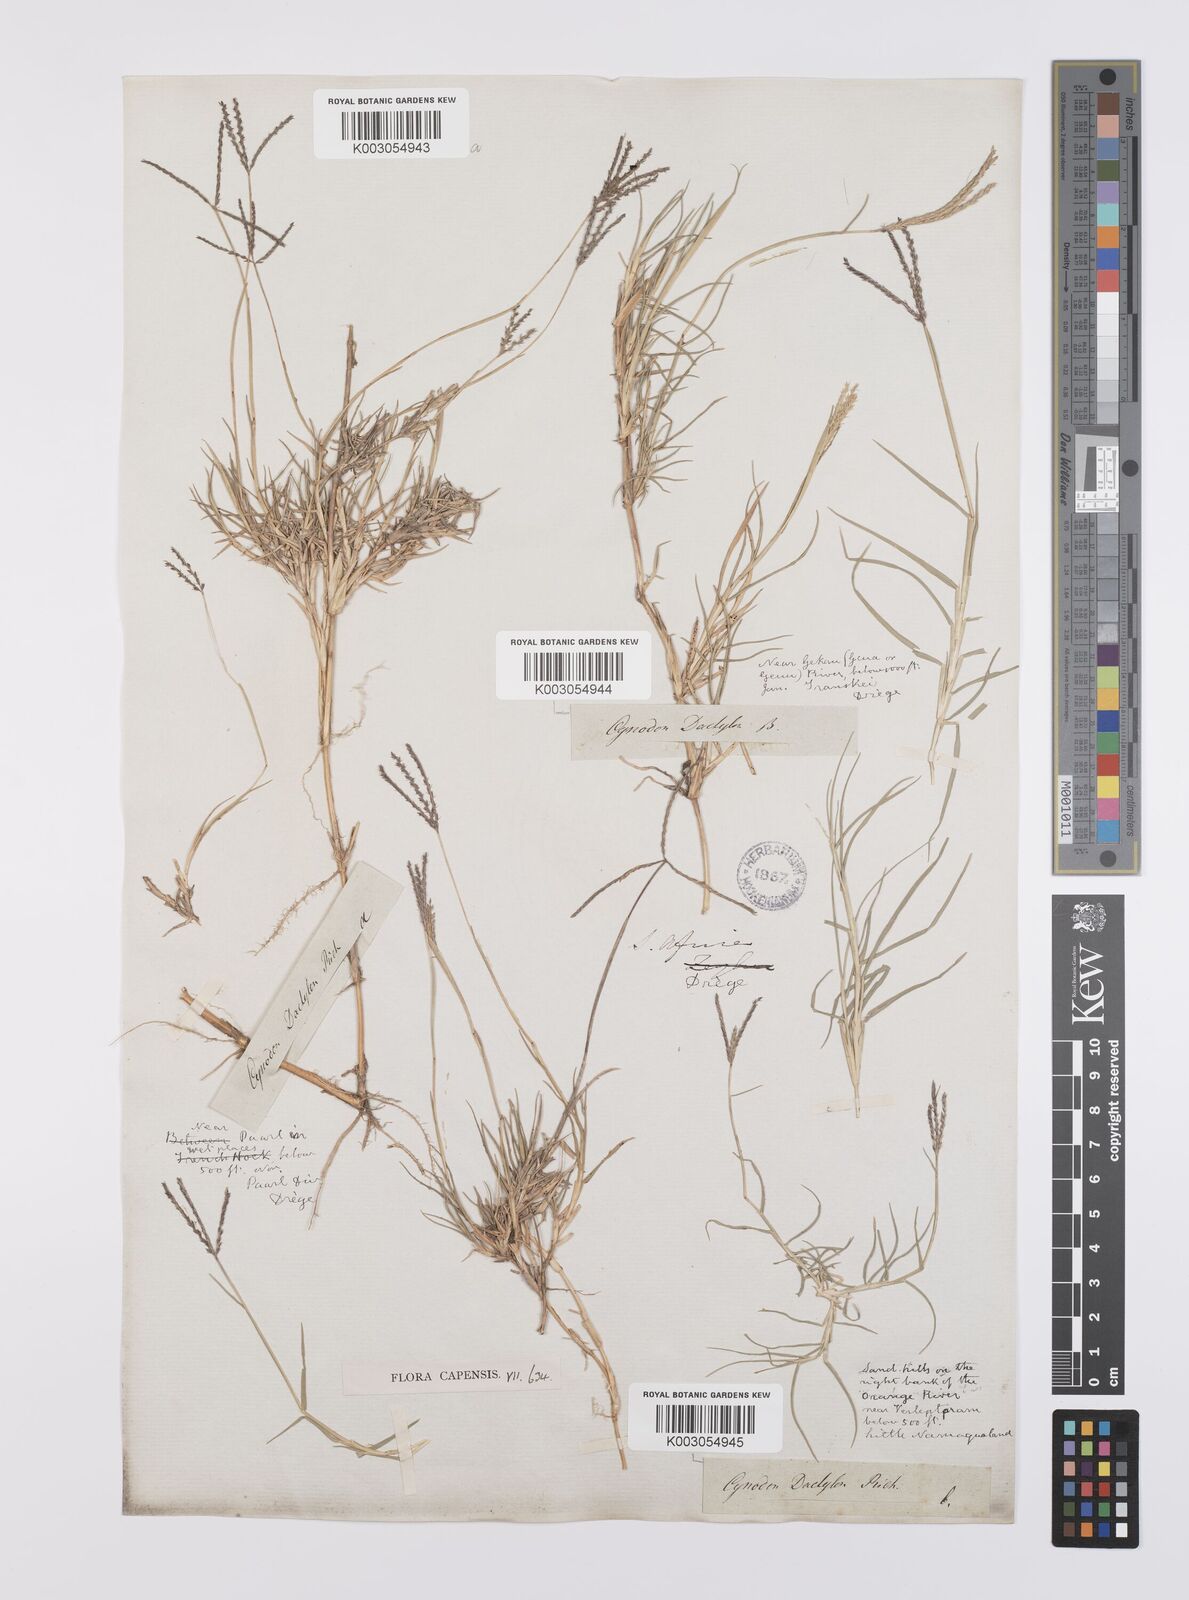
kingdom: Plantae
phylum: Tracheophyta
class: Liliopsida
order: Poales
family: Poaceae
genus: Cynodon
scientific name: Cynodon dactylon
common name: Bermuda grass
